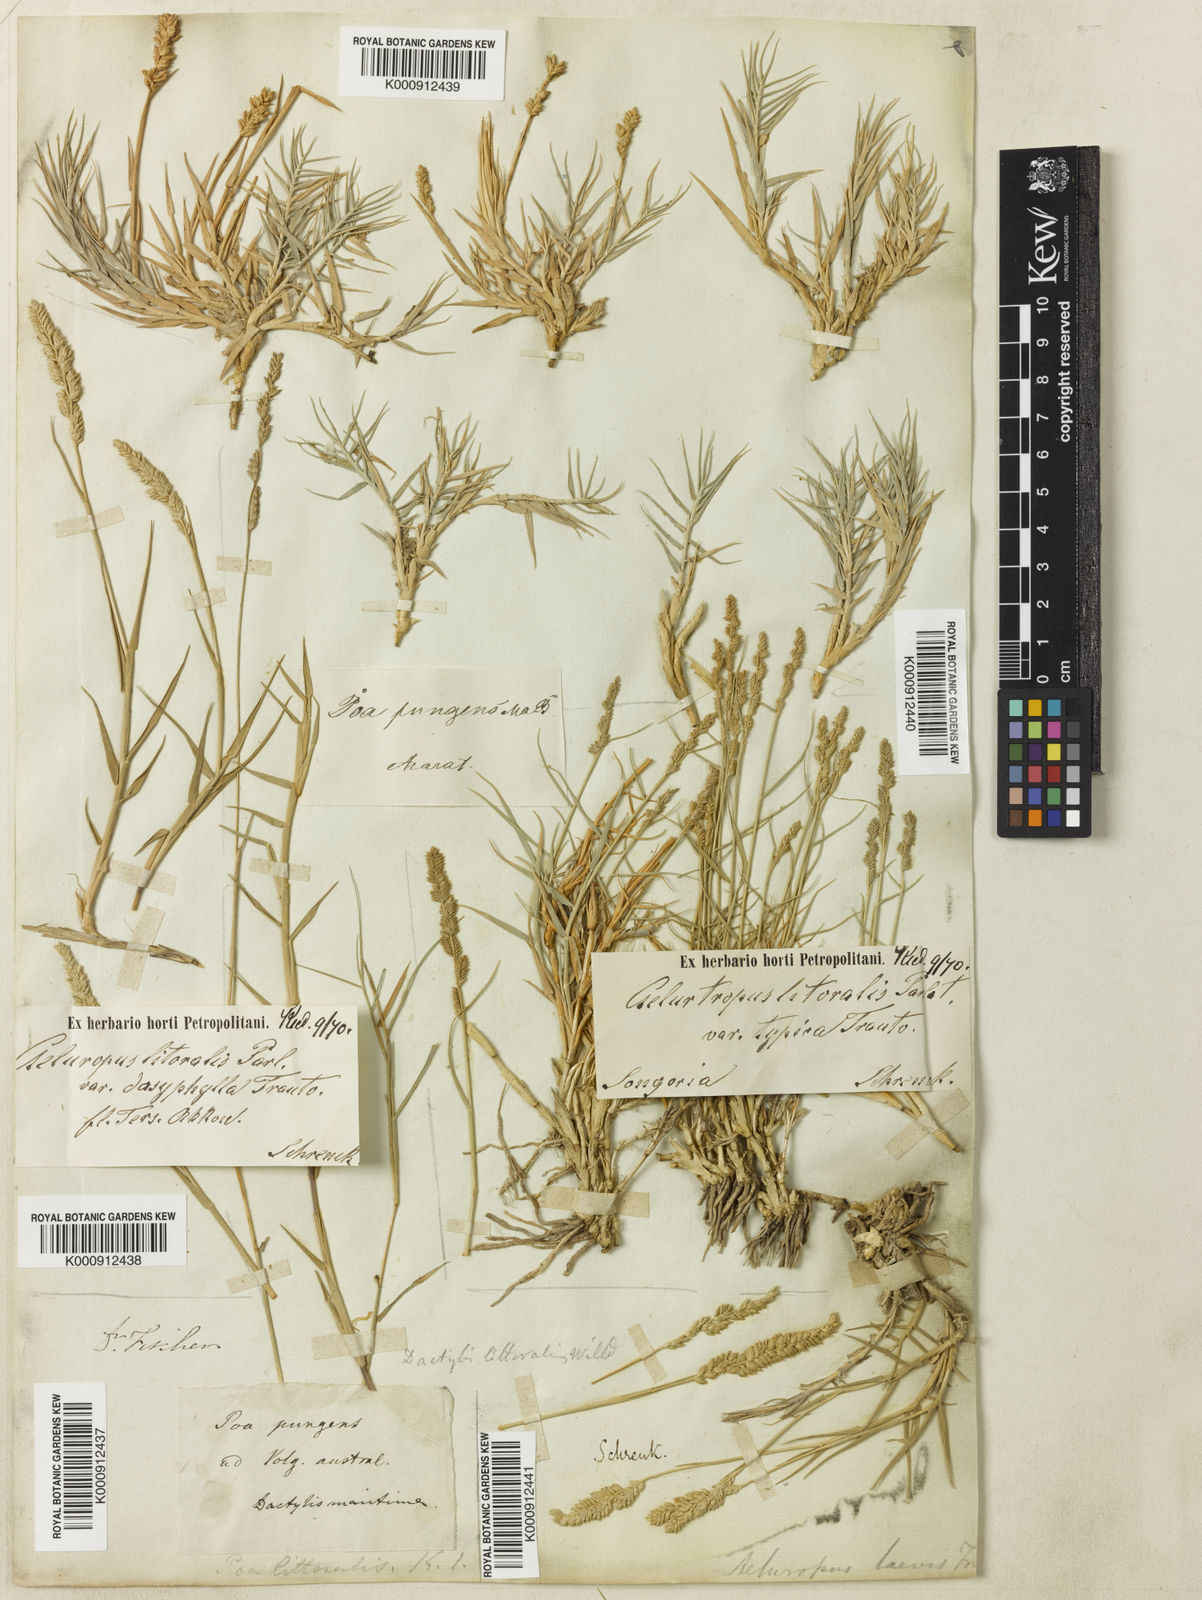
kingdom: Plantae
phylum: Tracheophyta
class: Liliopsida
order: Poales
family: Poaceae
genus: Aeluropus
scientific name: Aeluropus littoralis
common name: Indian walnut
